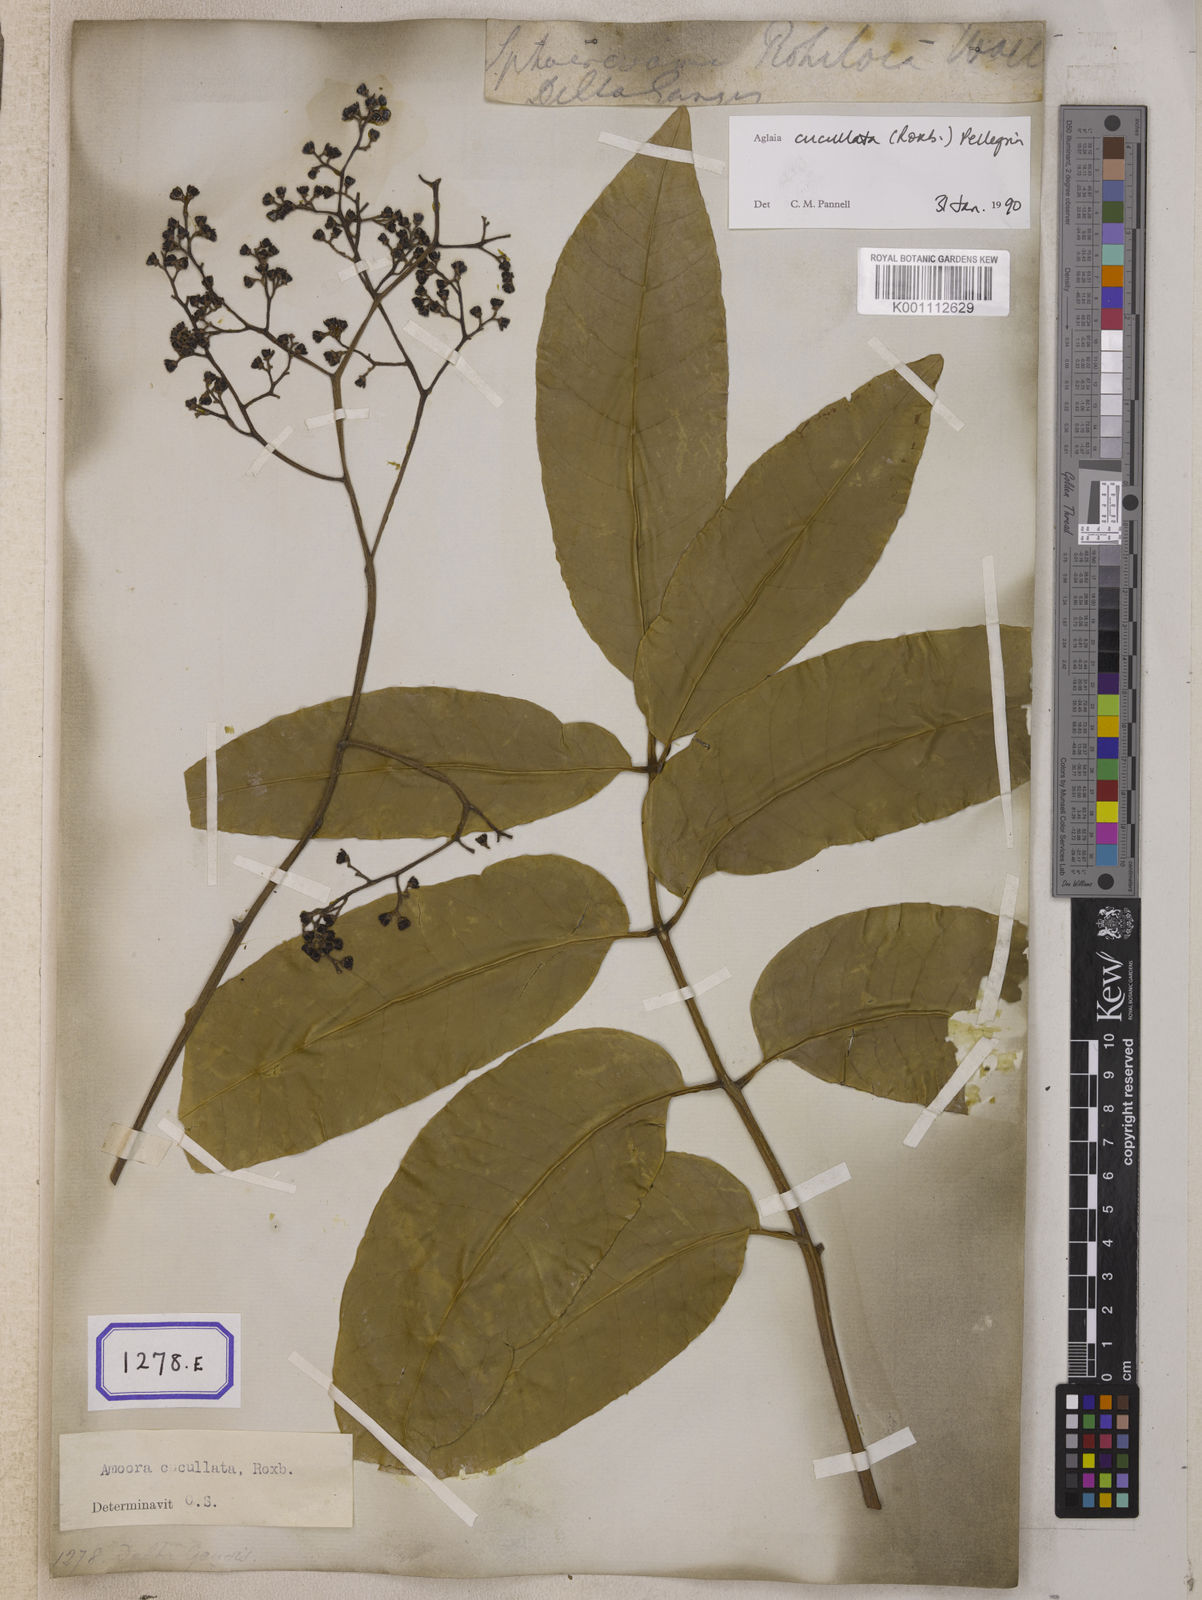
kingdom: Plantae
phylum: Tracheophyta
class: Magnoliopsida
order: Sapindales
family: Meliaceae
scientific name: Meliaceae
